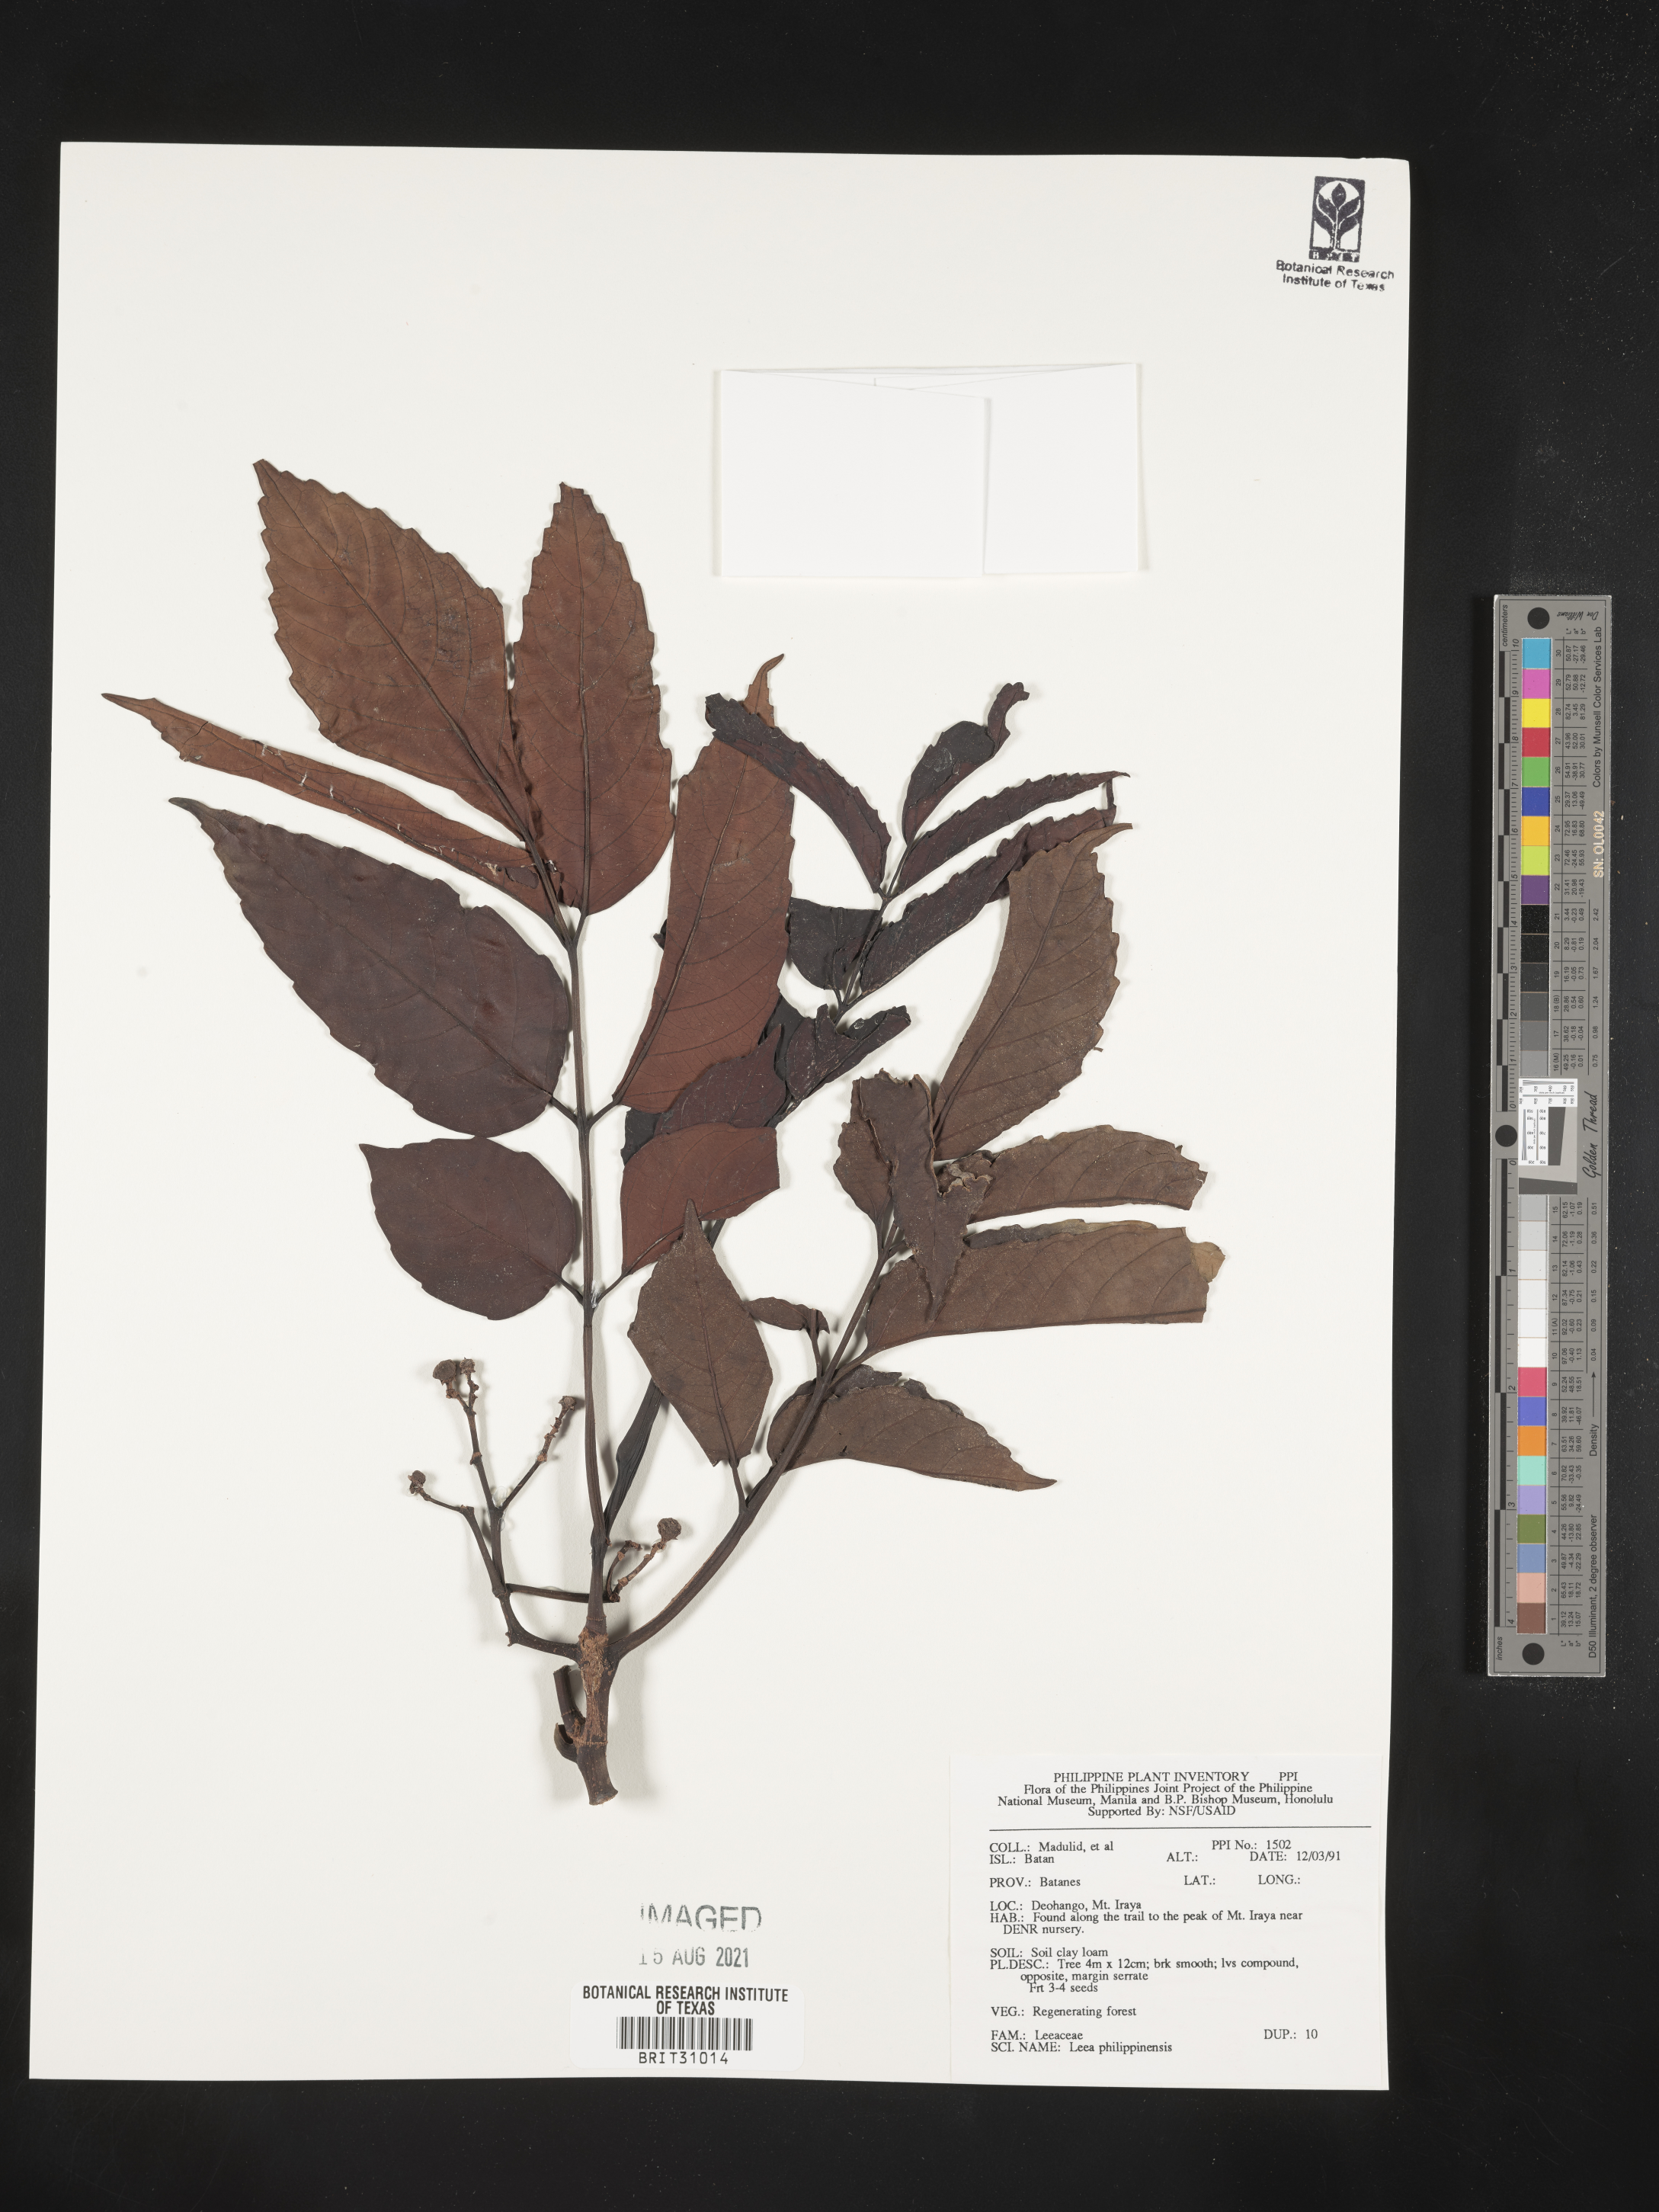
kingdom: Plantae
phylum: Tracheophyta
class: Magnoliopsida
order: Vitales
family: Vitaceae
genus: Leea
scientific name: Leea philippinensis
